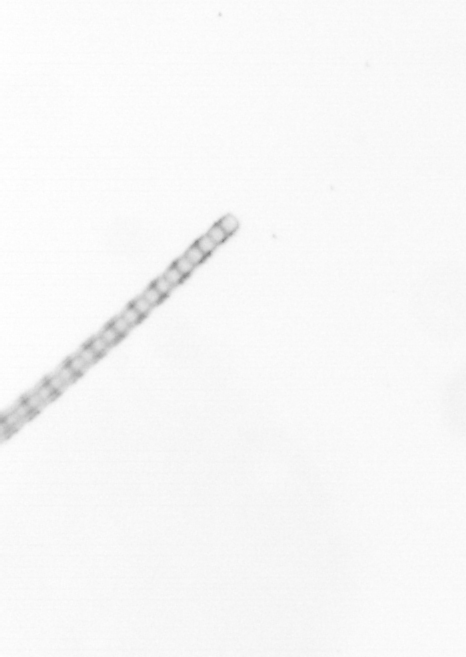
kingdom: Chromista
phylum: Ochrophyta
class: Bacillariophyceae
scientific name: Bacillariophyceae
